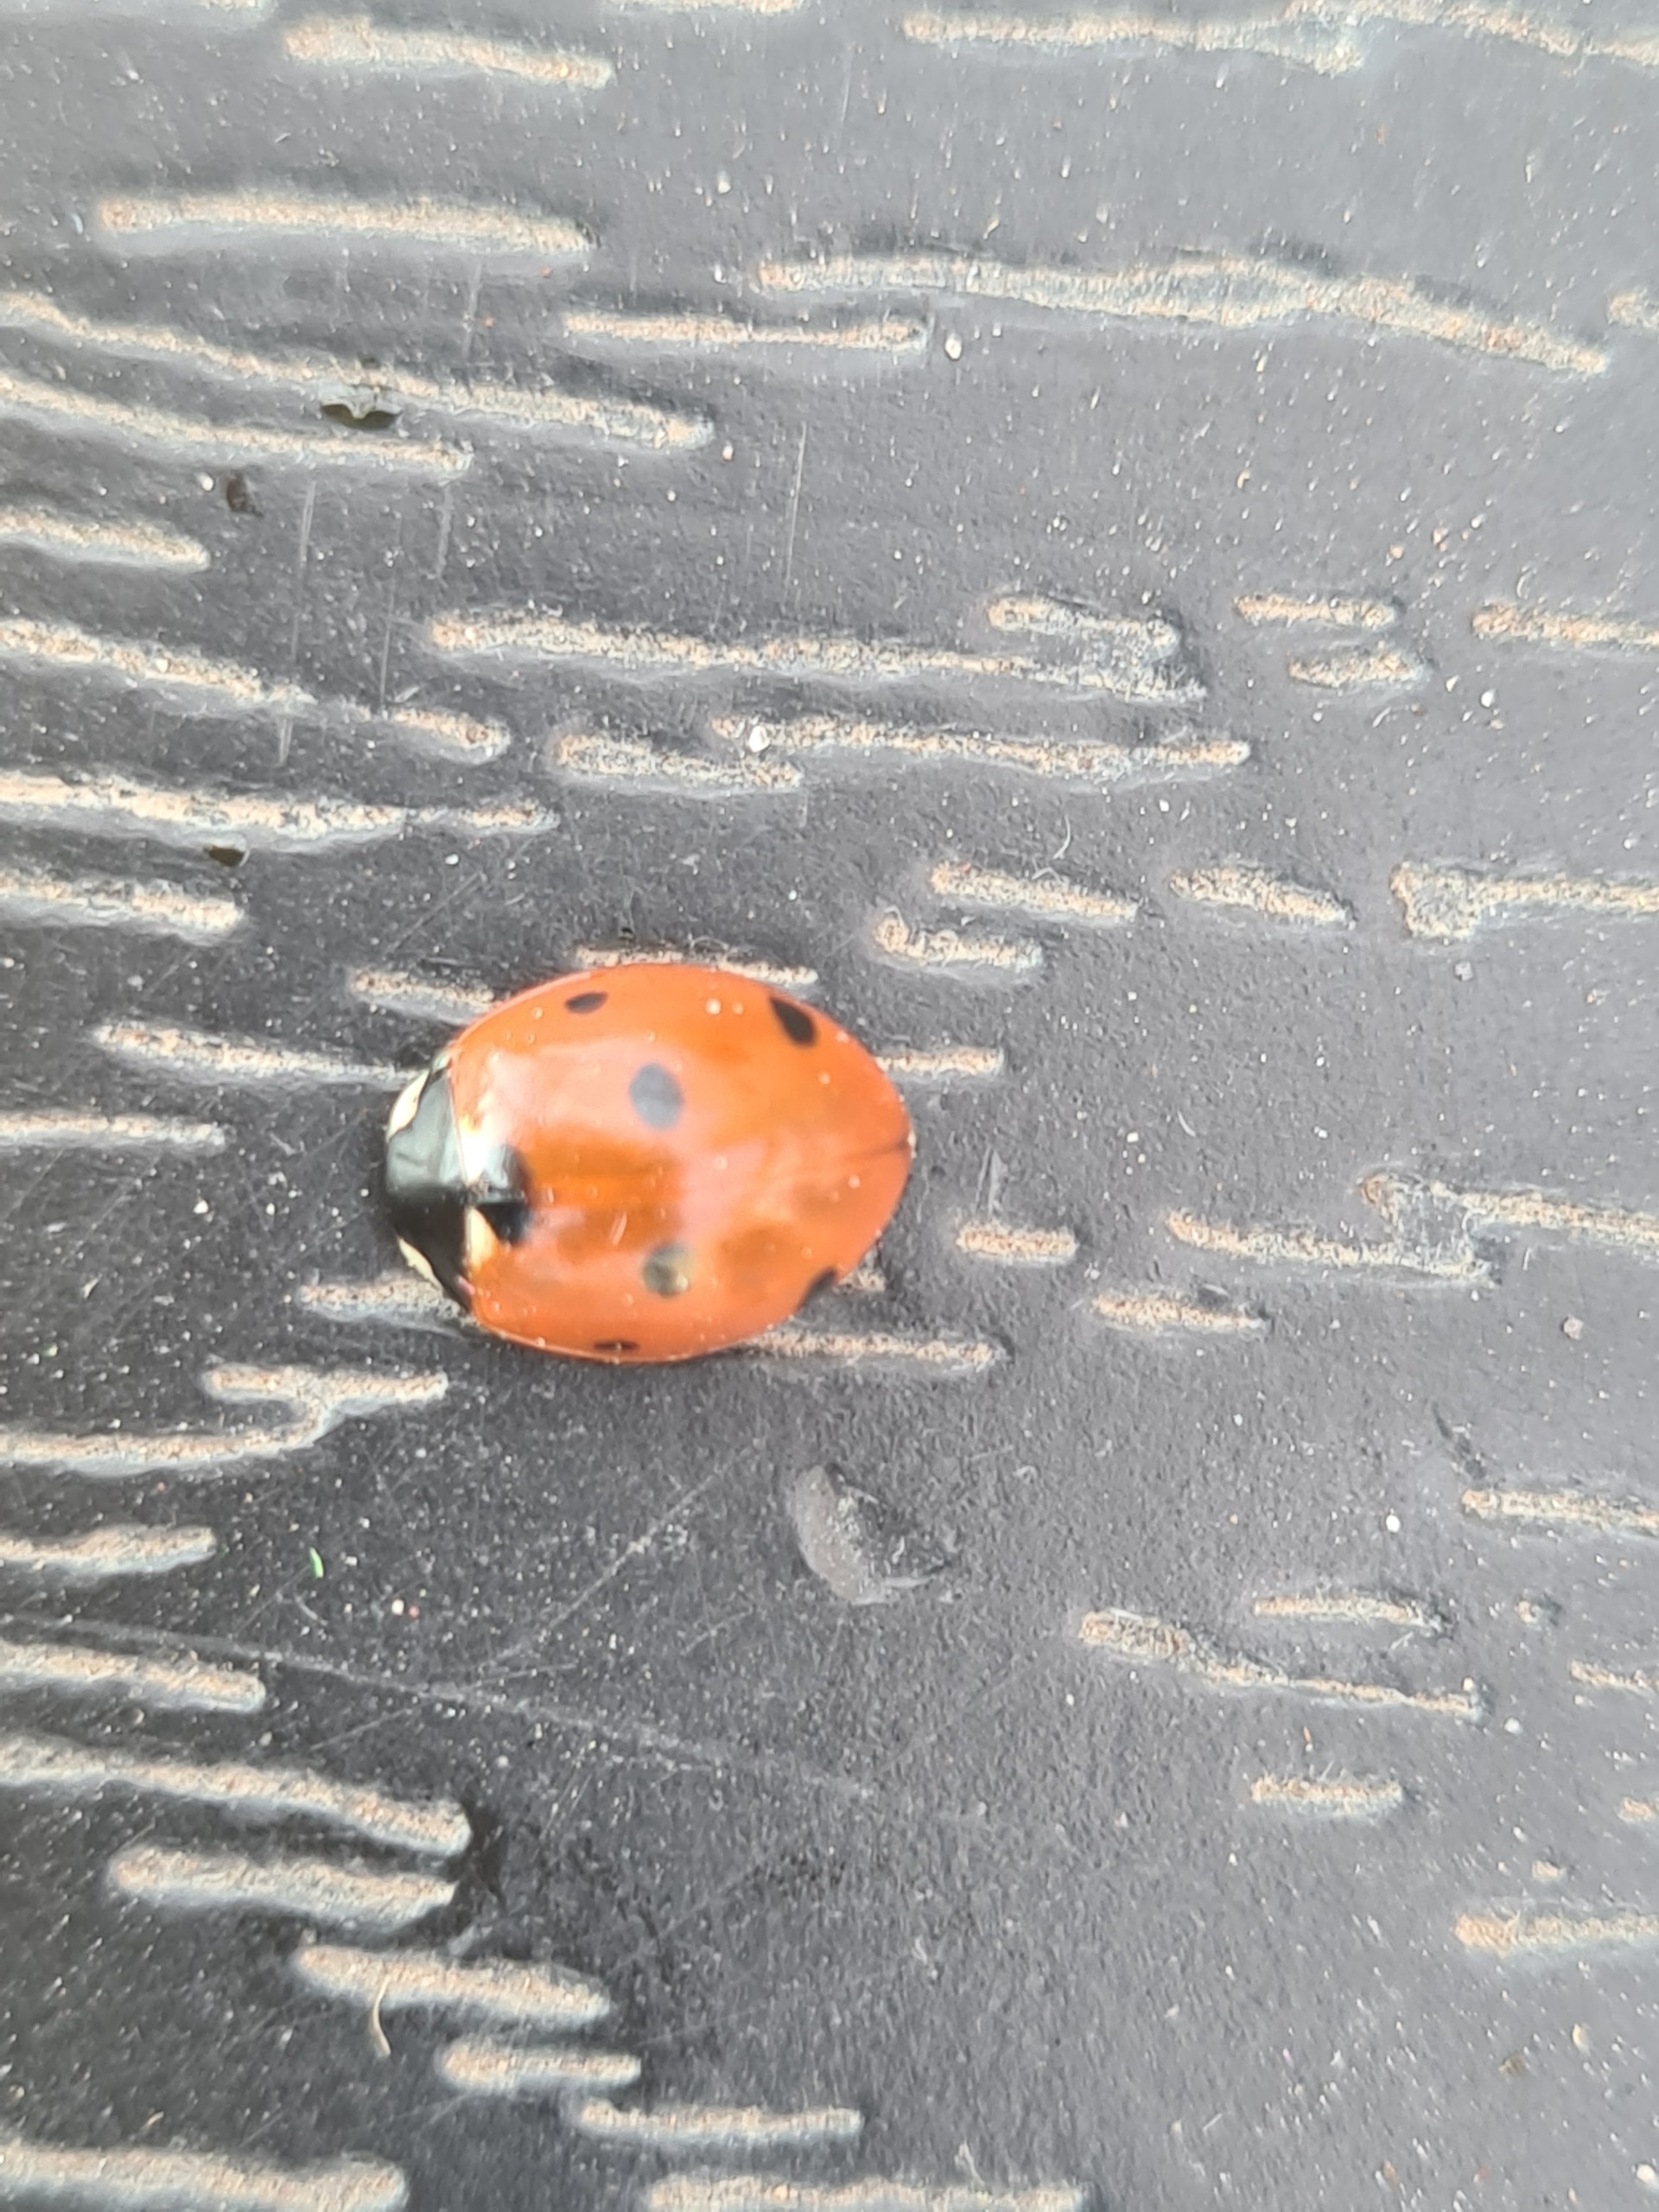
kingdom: Animalia
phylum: Arthropoda
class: Insecta
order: Coleoptera
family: Coccinellidae
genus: Coccinella
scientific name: Coccinella septempunctata
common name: Syvplettet mariehøne
